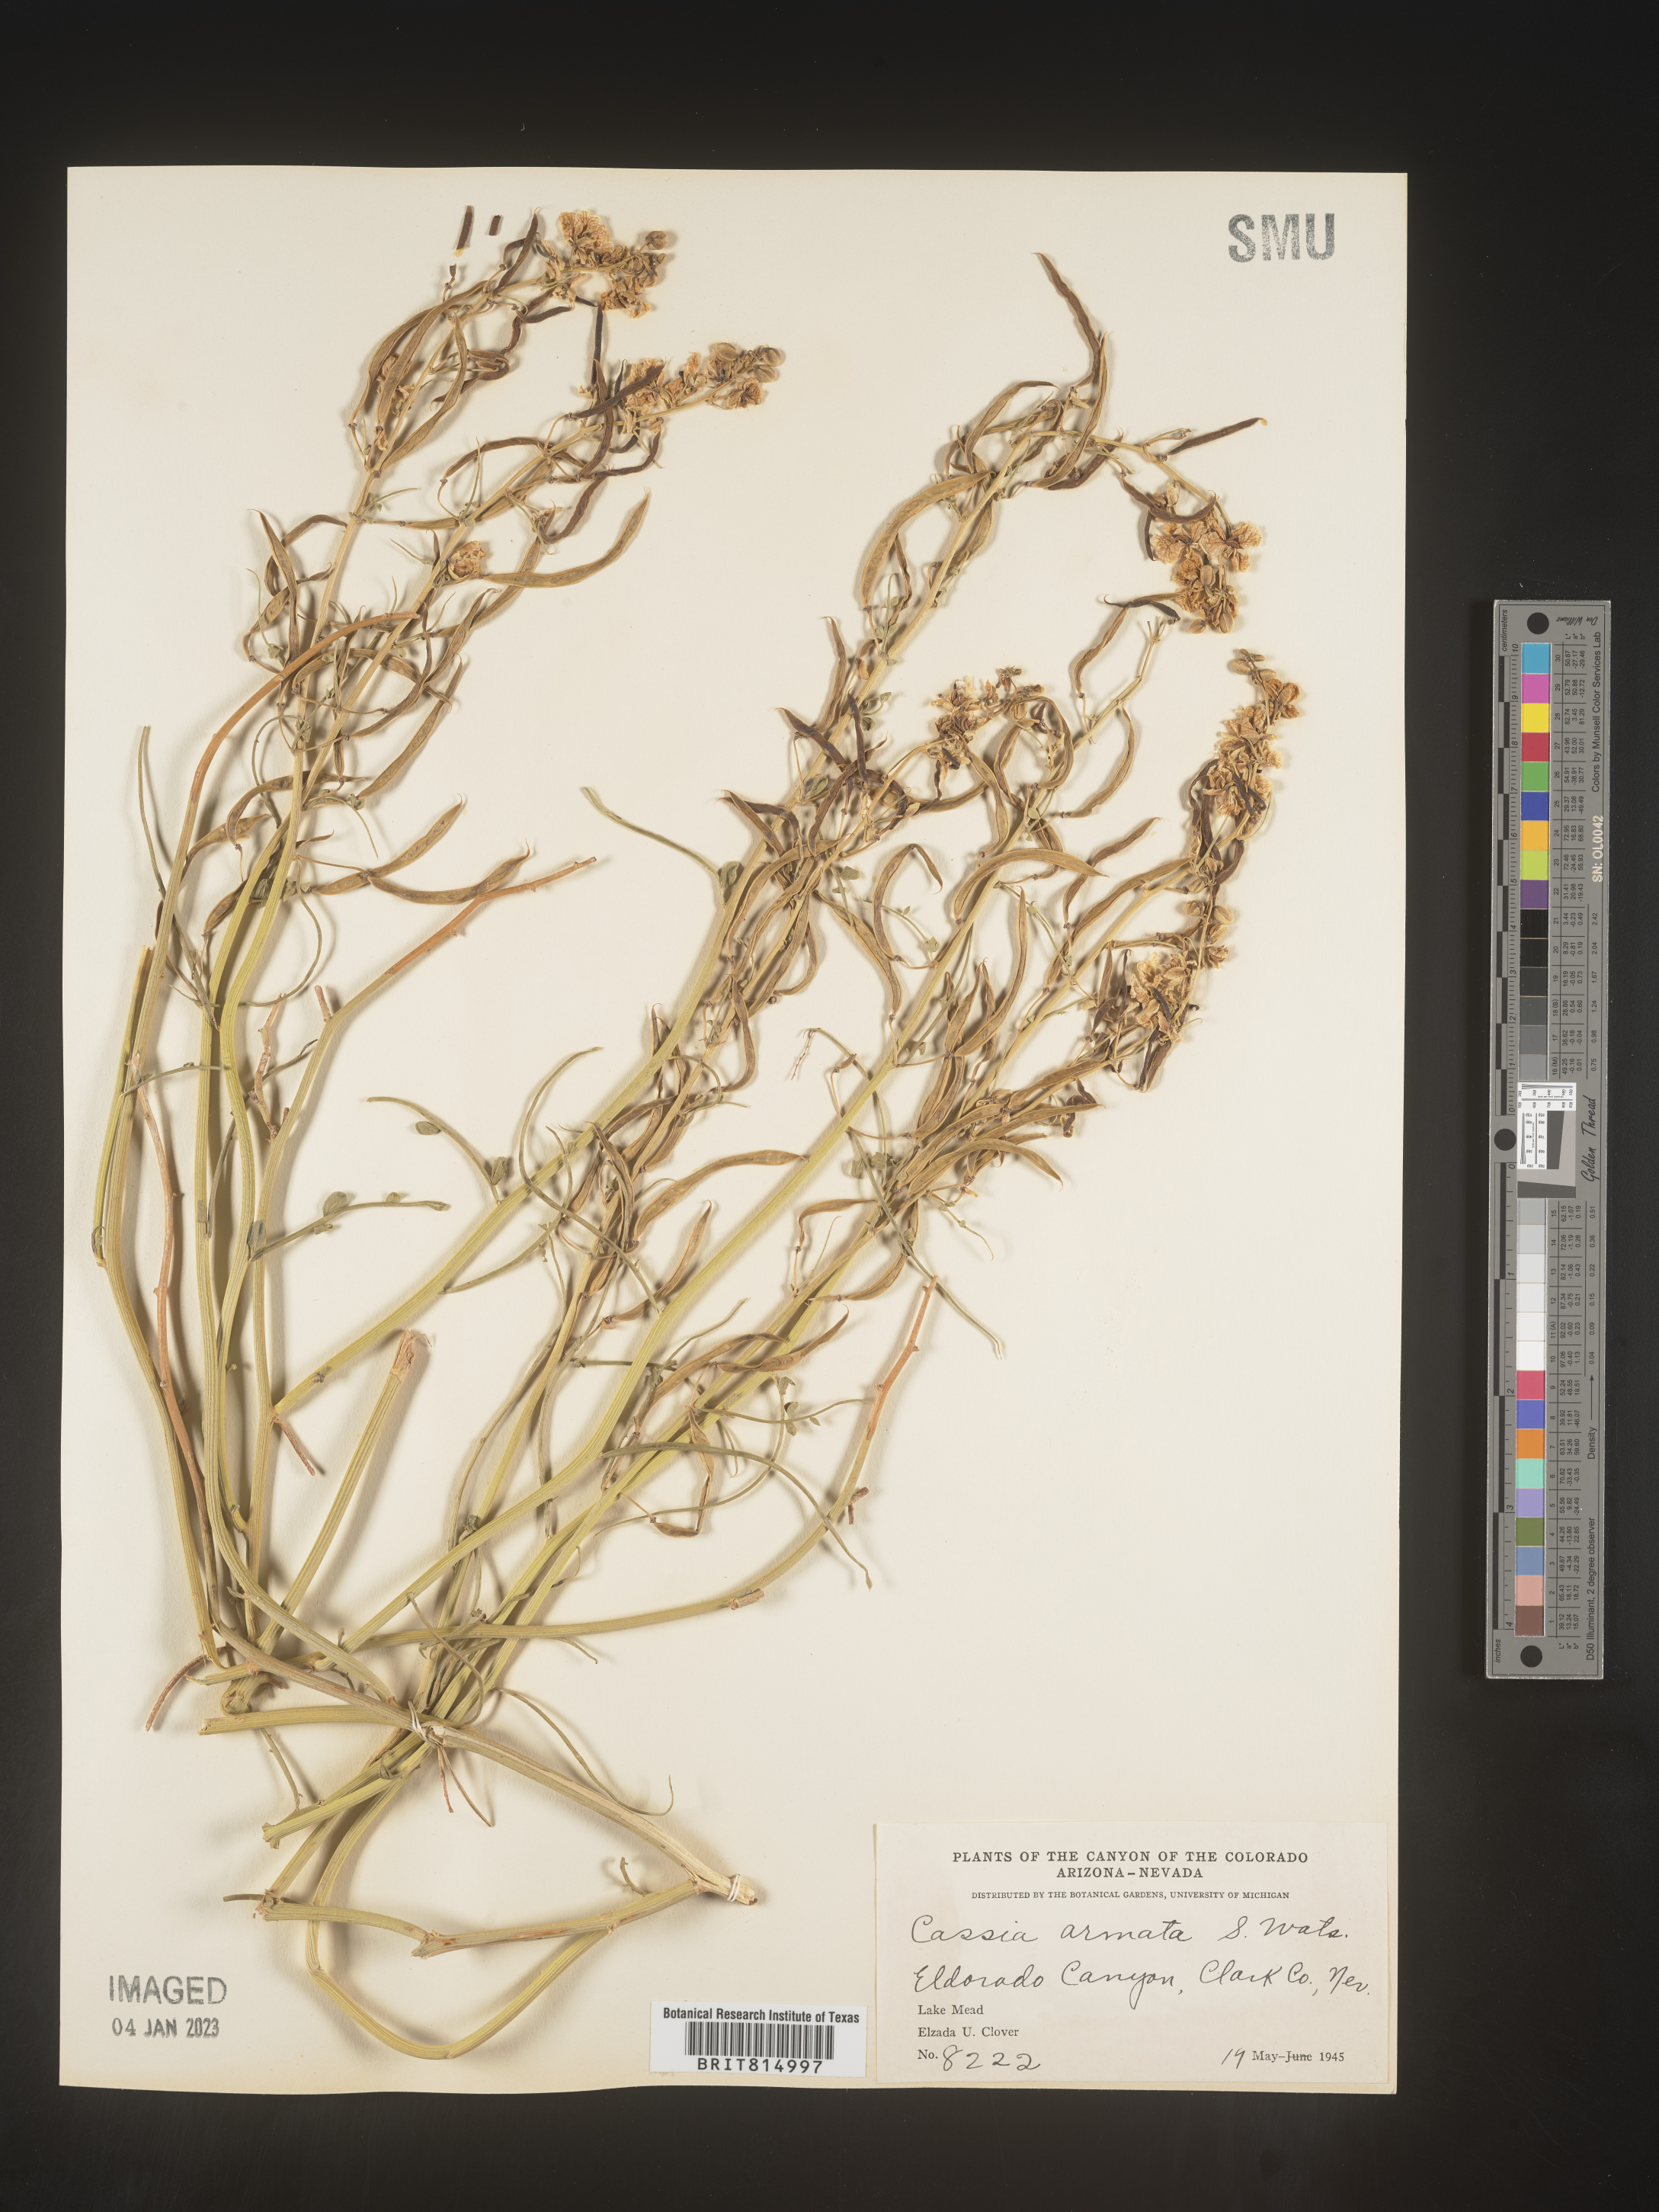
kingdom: Plantae
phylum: Tracheophyta
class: Magnoliopsida
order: Fabales
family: Fabaceae
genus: Cassia
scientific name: Cassia
